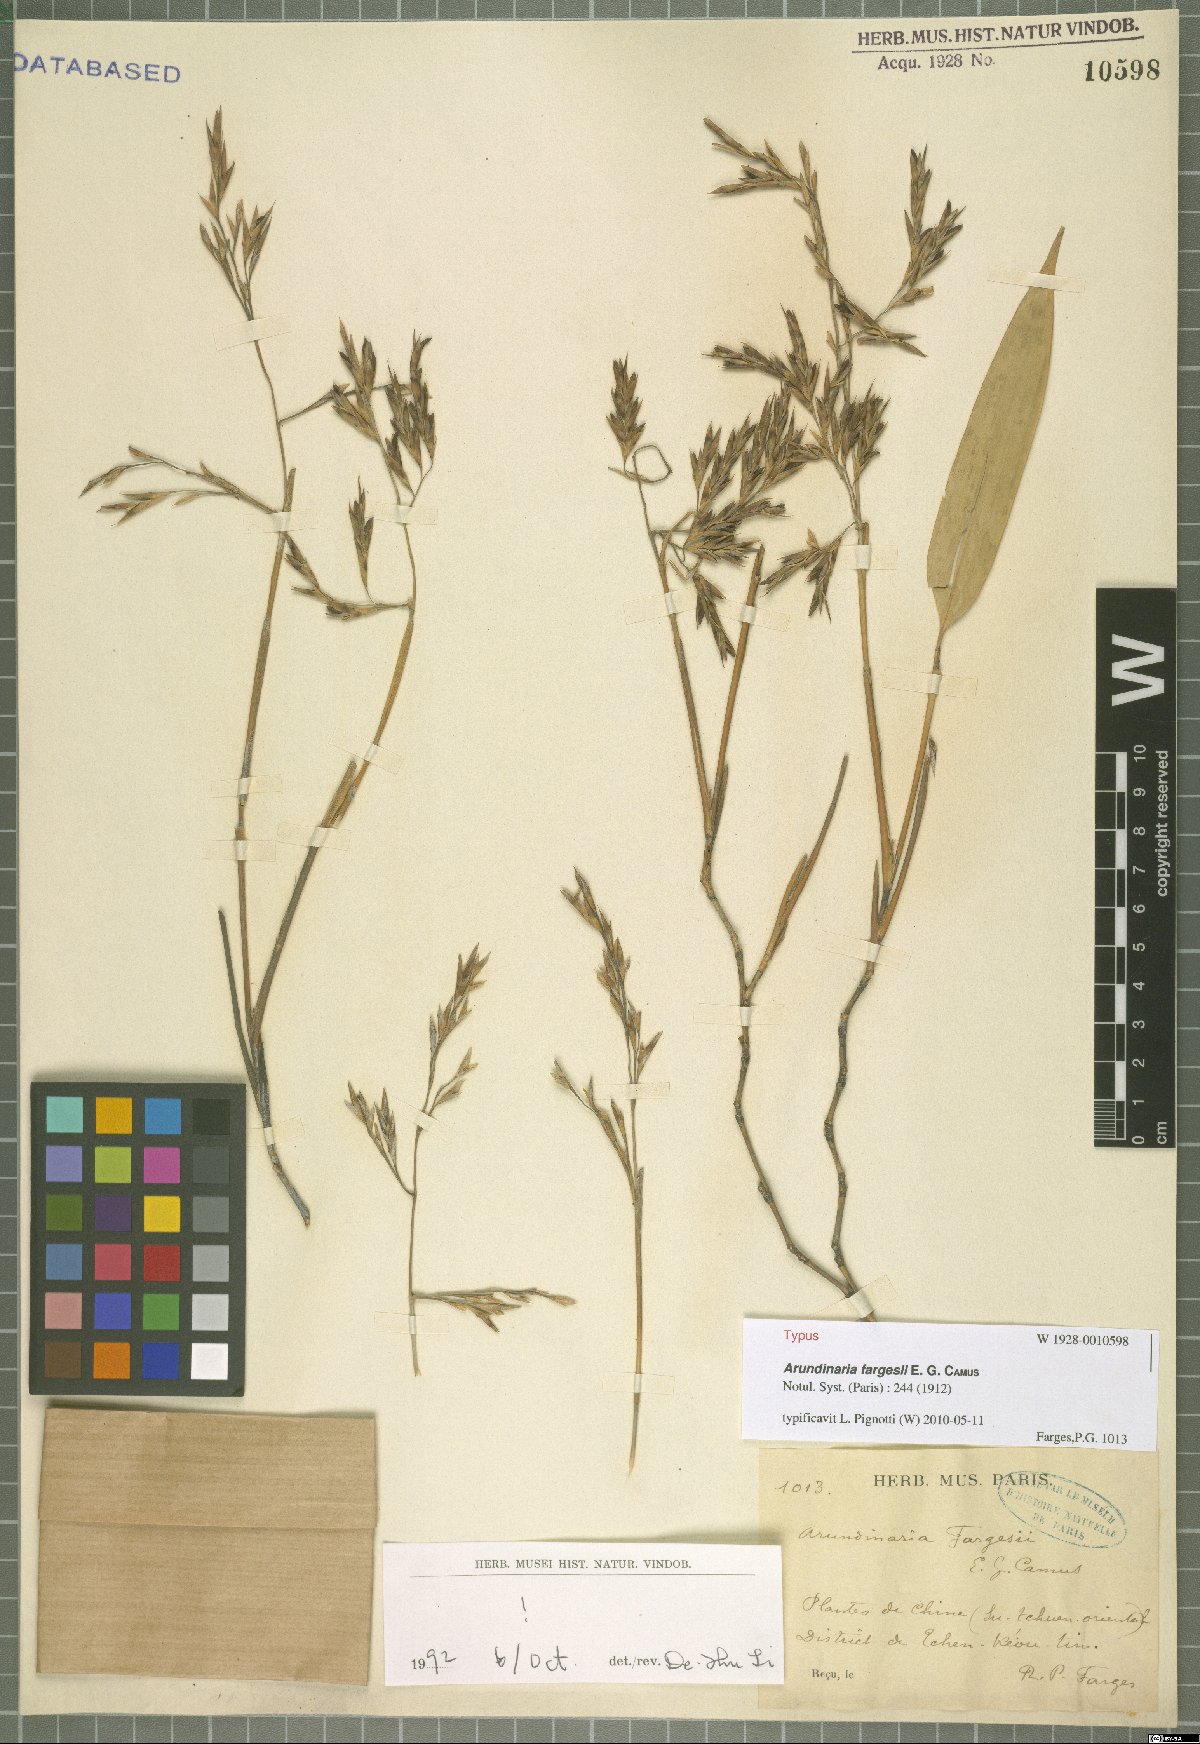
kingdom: Plantae
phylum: Tracheophyta
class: Liliopsida
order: Poales
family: Poaceae
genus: Bashania
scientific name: Bashania fargesii
